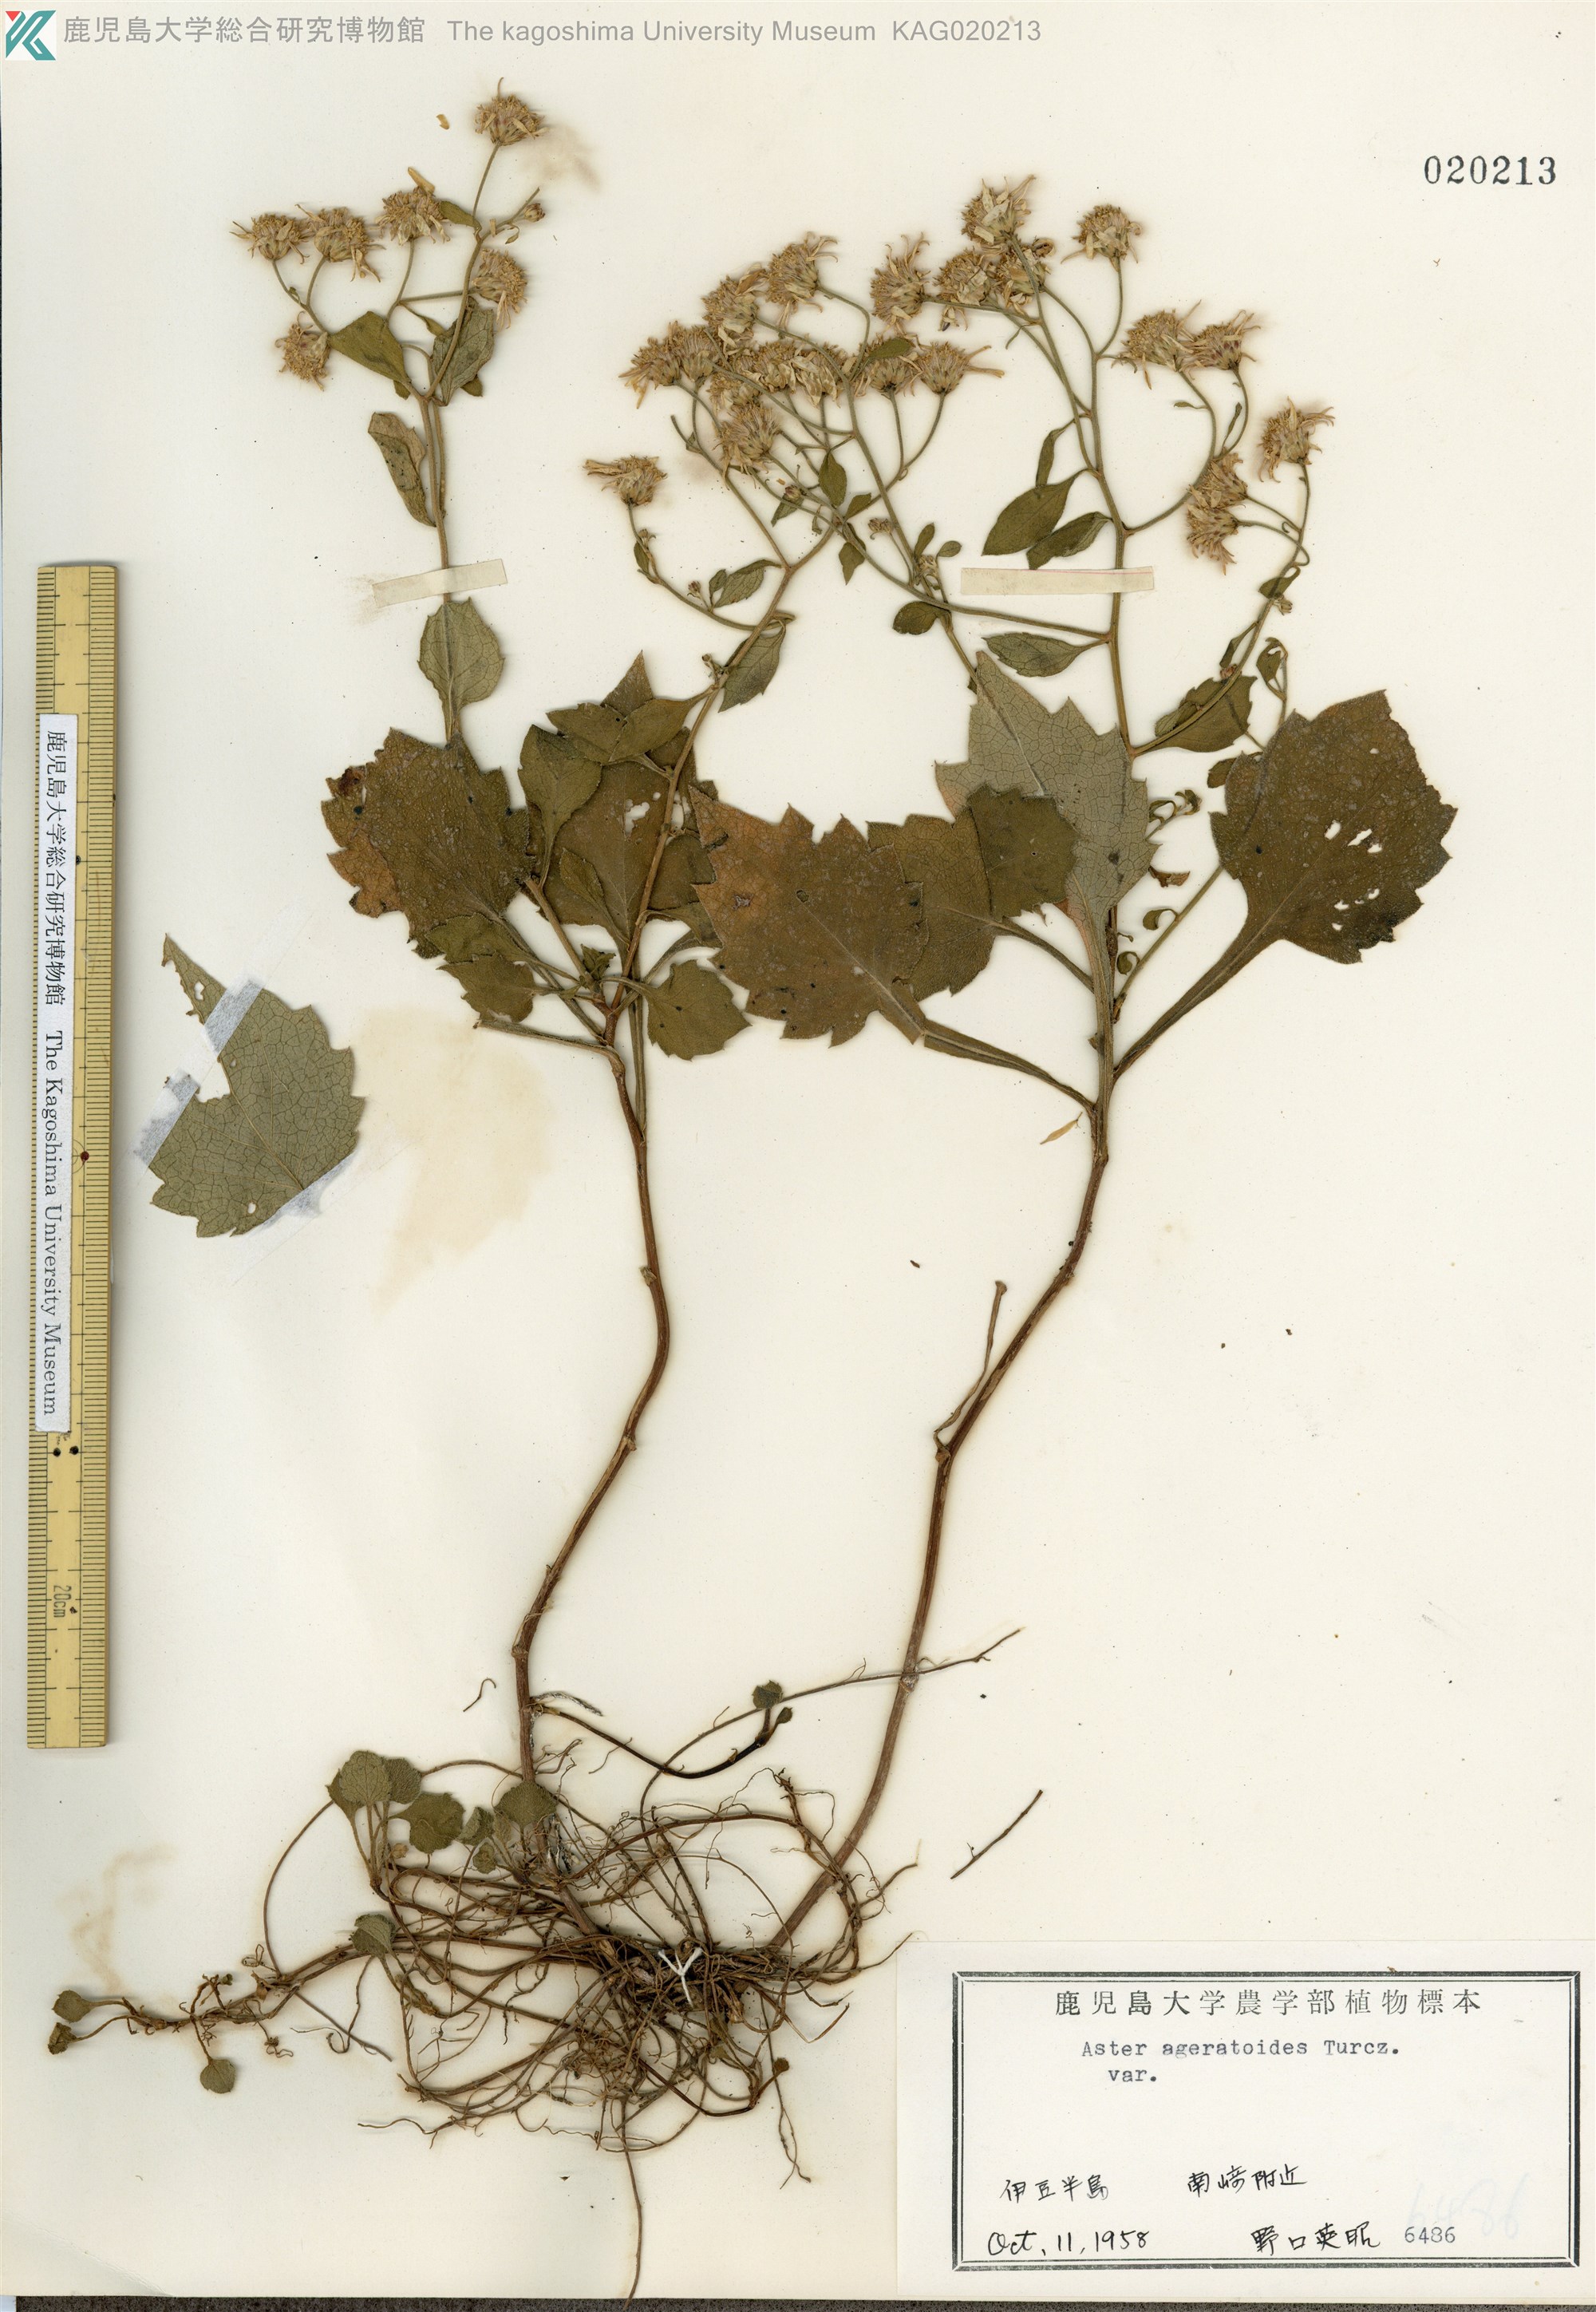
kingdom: Plantae
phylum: Tracheophyta
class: Magnoliopsida
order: Asterales
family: Asteraceae
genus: Aster
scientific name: Aster sugimotoi
